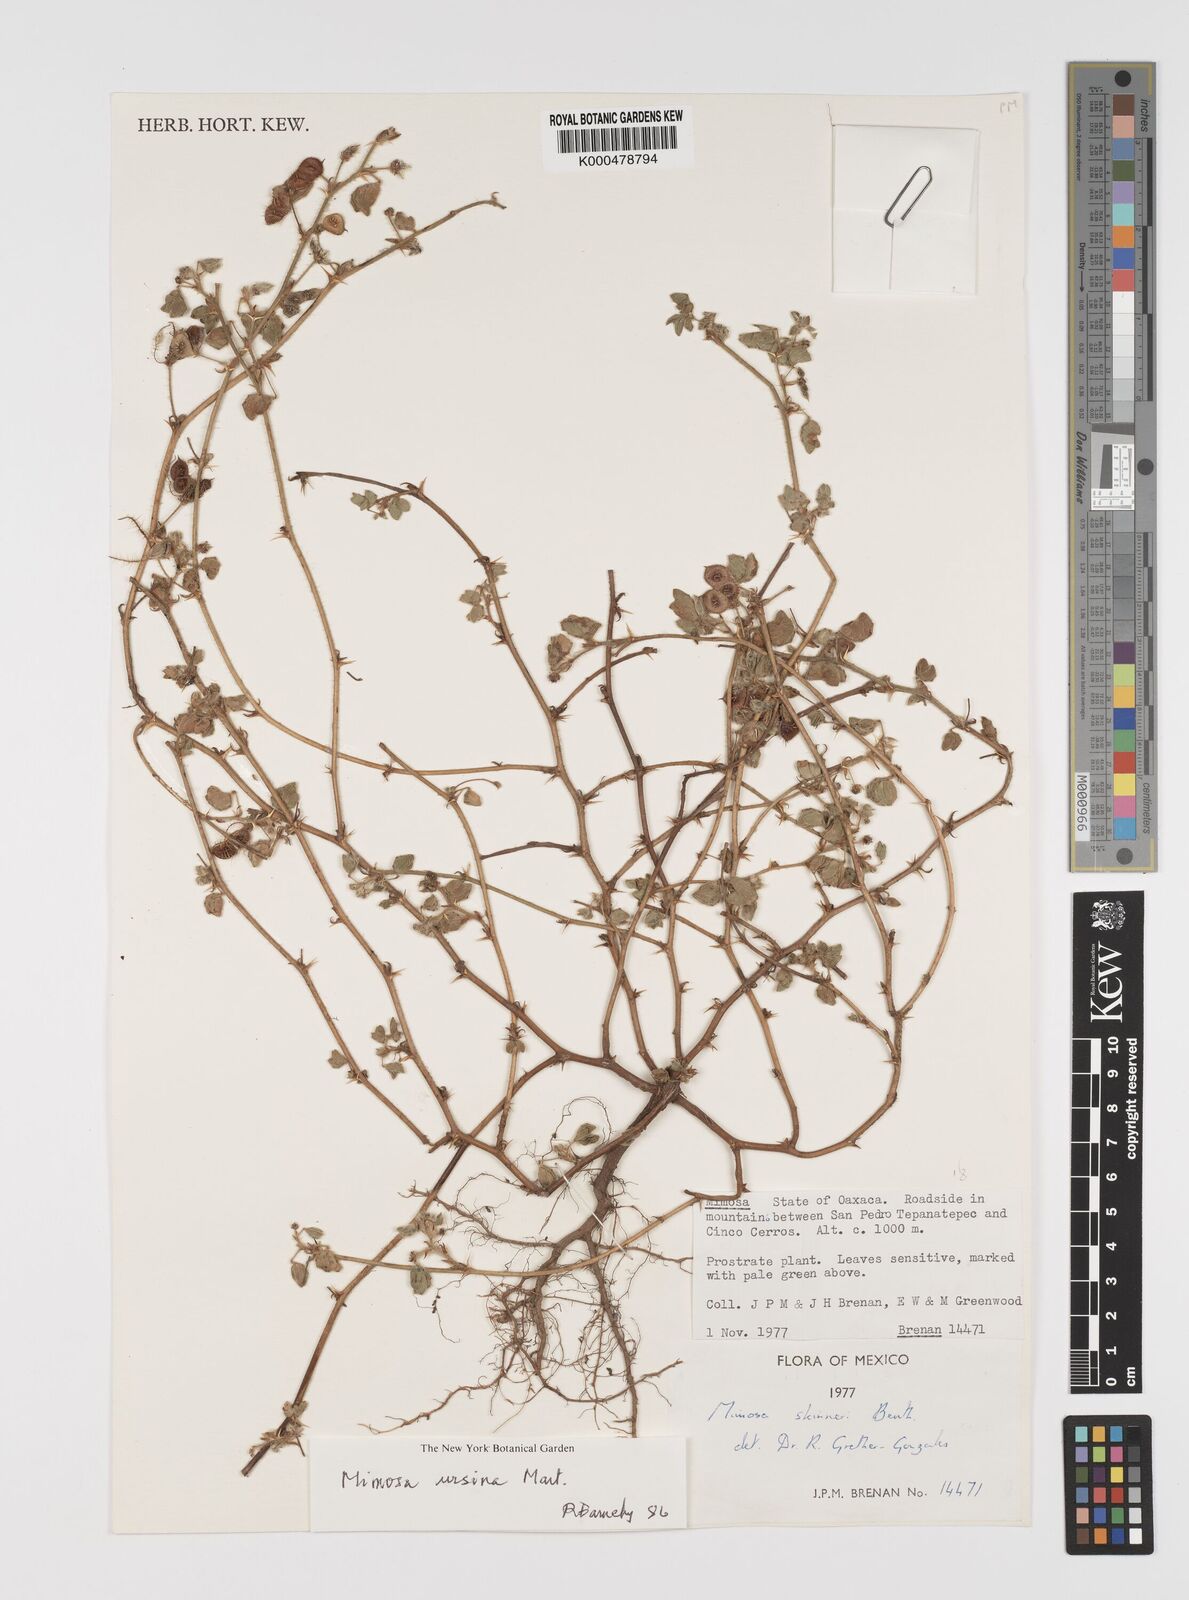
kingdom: Plantae
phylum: Tracheophyta
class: Magnoliopsida
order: Fabales
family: Fabaceae
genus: Mimosa
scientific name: Mimosa ursina
